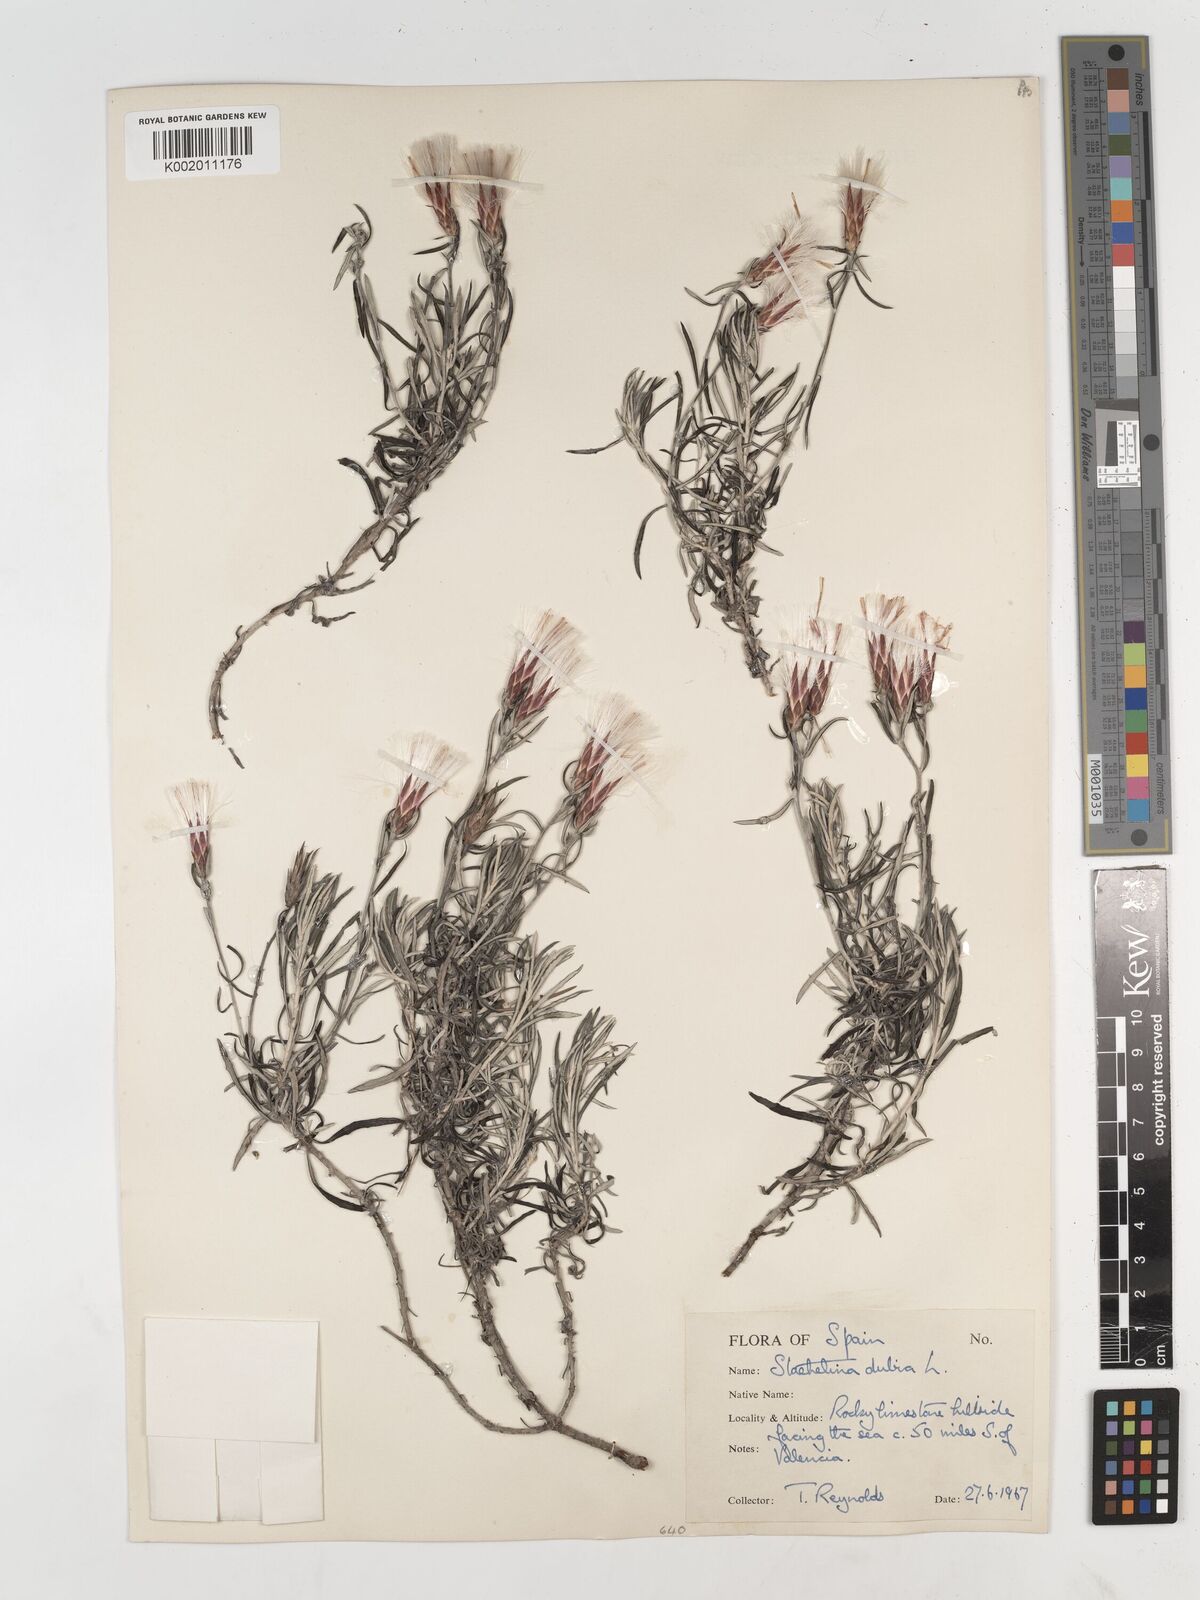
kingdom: Plantae
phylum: Tracheophyta
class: Magnoliopsida
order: Asterales
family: Asteraceae
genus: Staehelina
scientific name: Staehelina dubia
